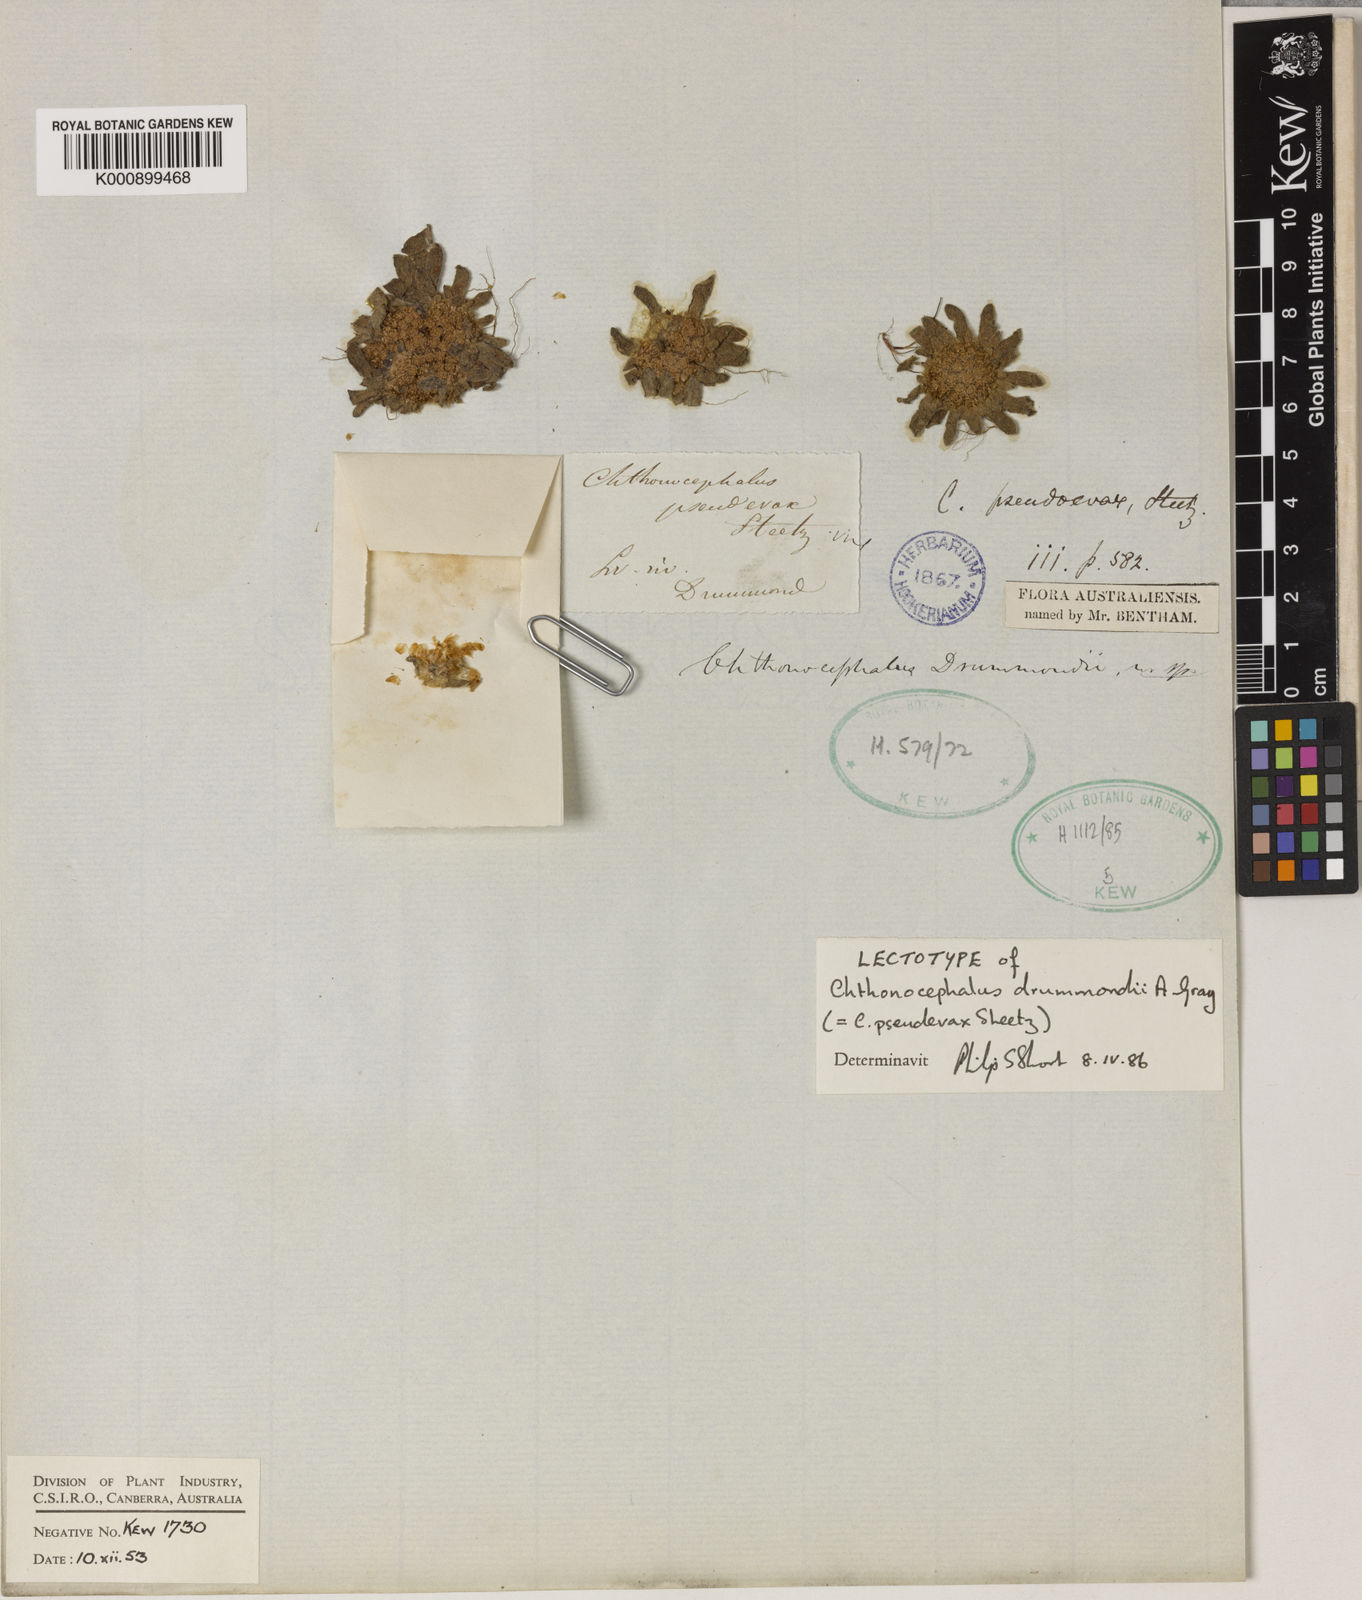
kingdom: Plantae
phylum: Tracheophyta
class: Magnoliopsida
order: Asterales
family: Asteraceae
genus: Chthonocephalus
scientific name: Chthonocephalus pseudevax
